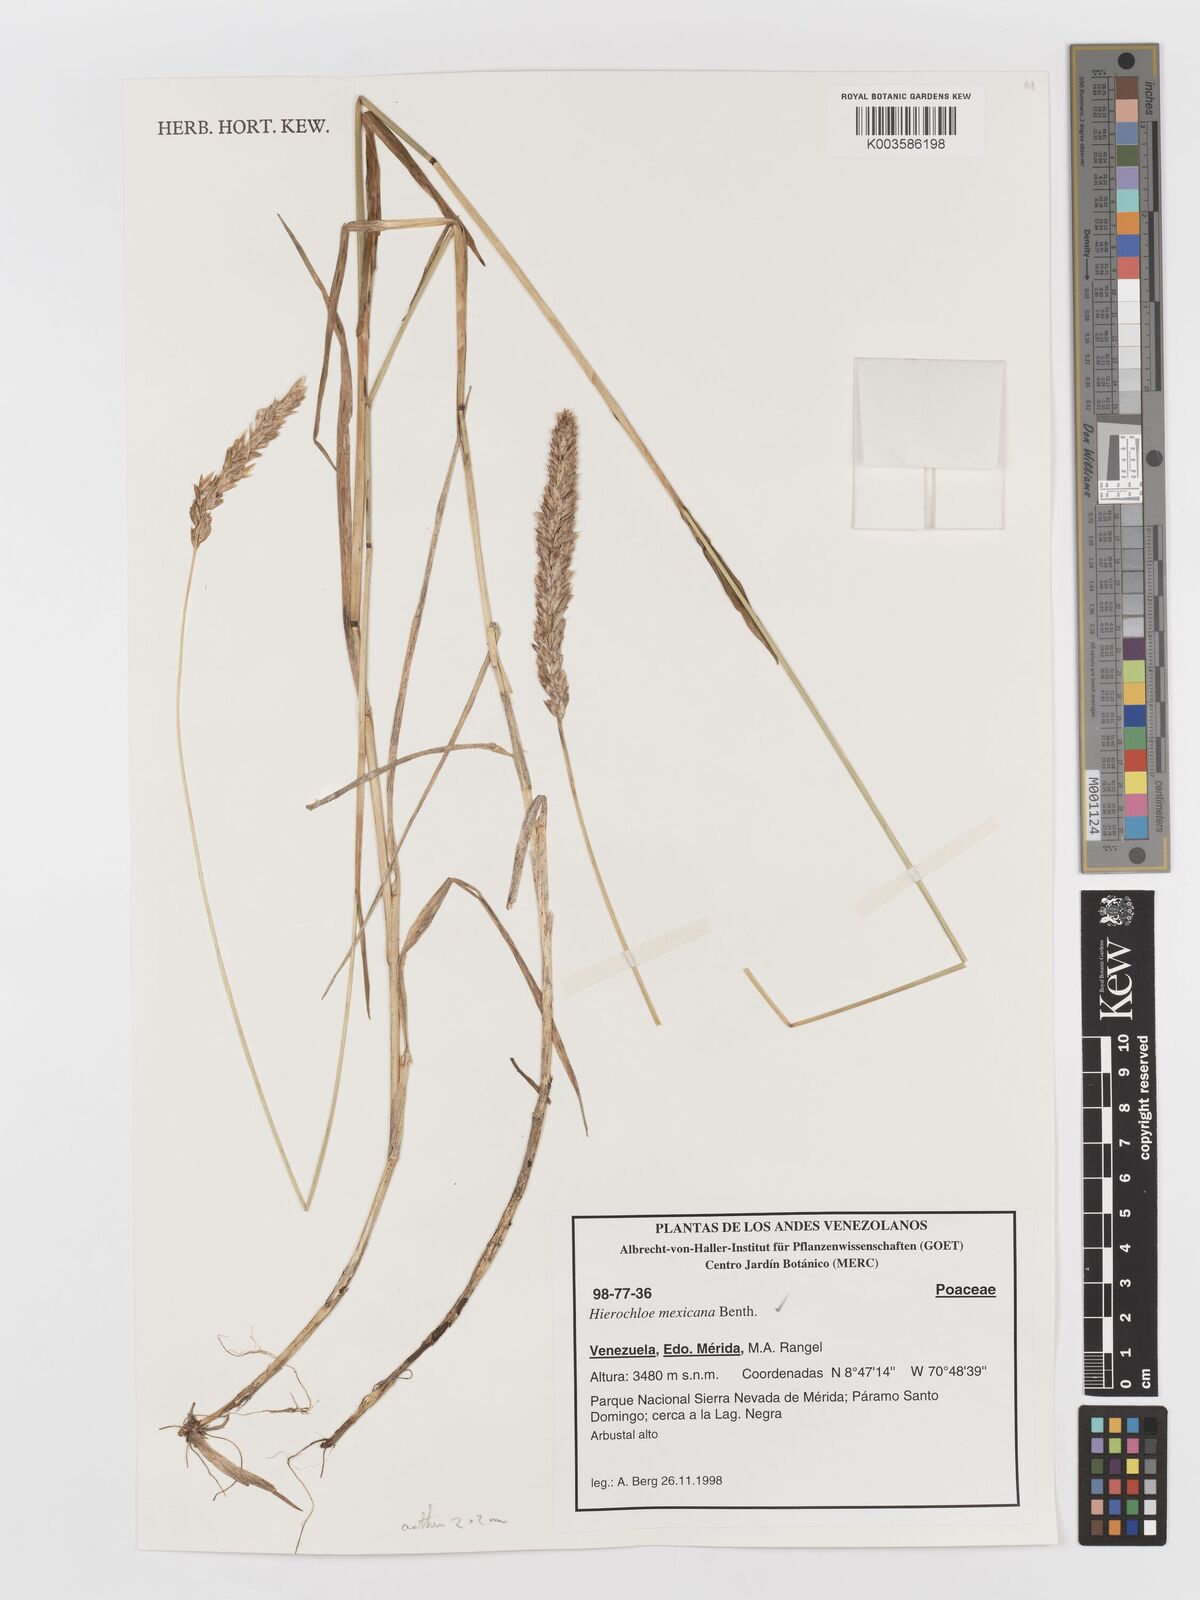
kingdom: Plantae
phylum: Tracheophyta
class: Liliopsida
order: Poales
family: Poaceae
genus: Anthoxanthum
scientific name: Anthoxanthum mexicanum
